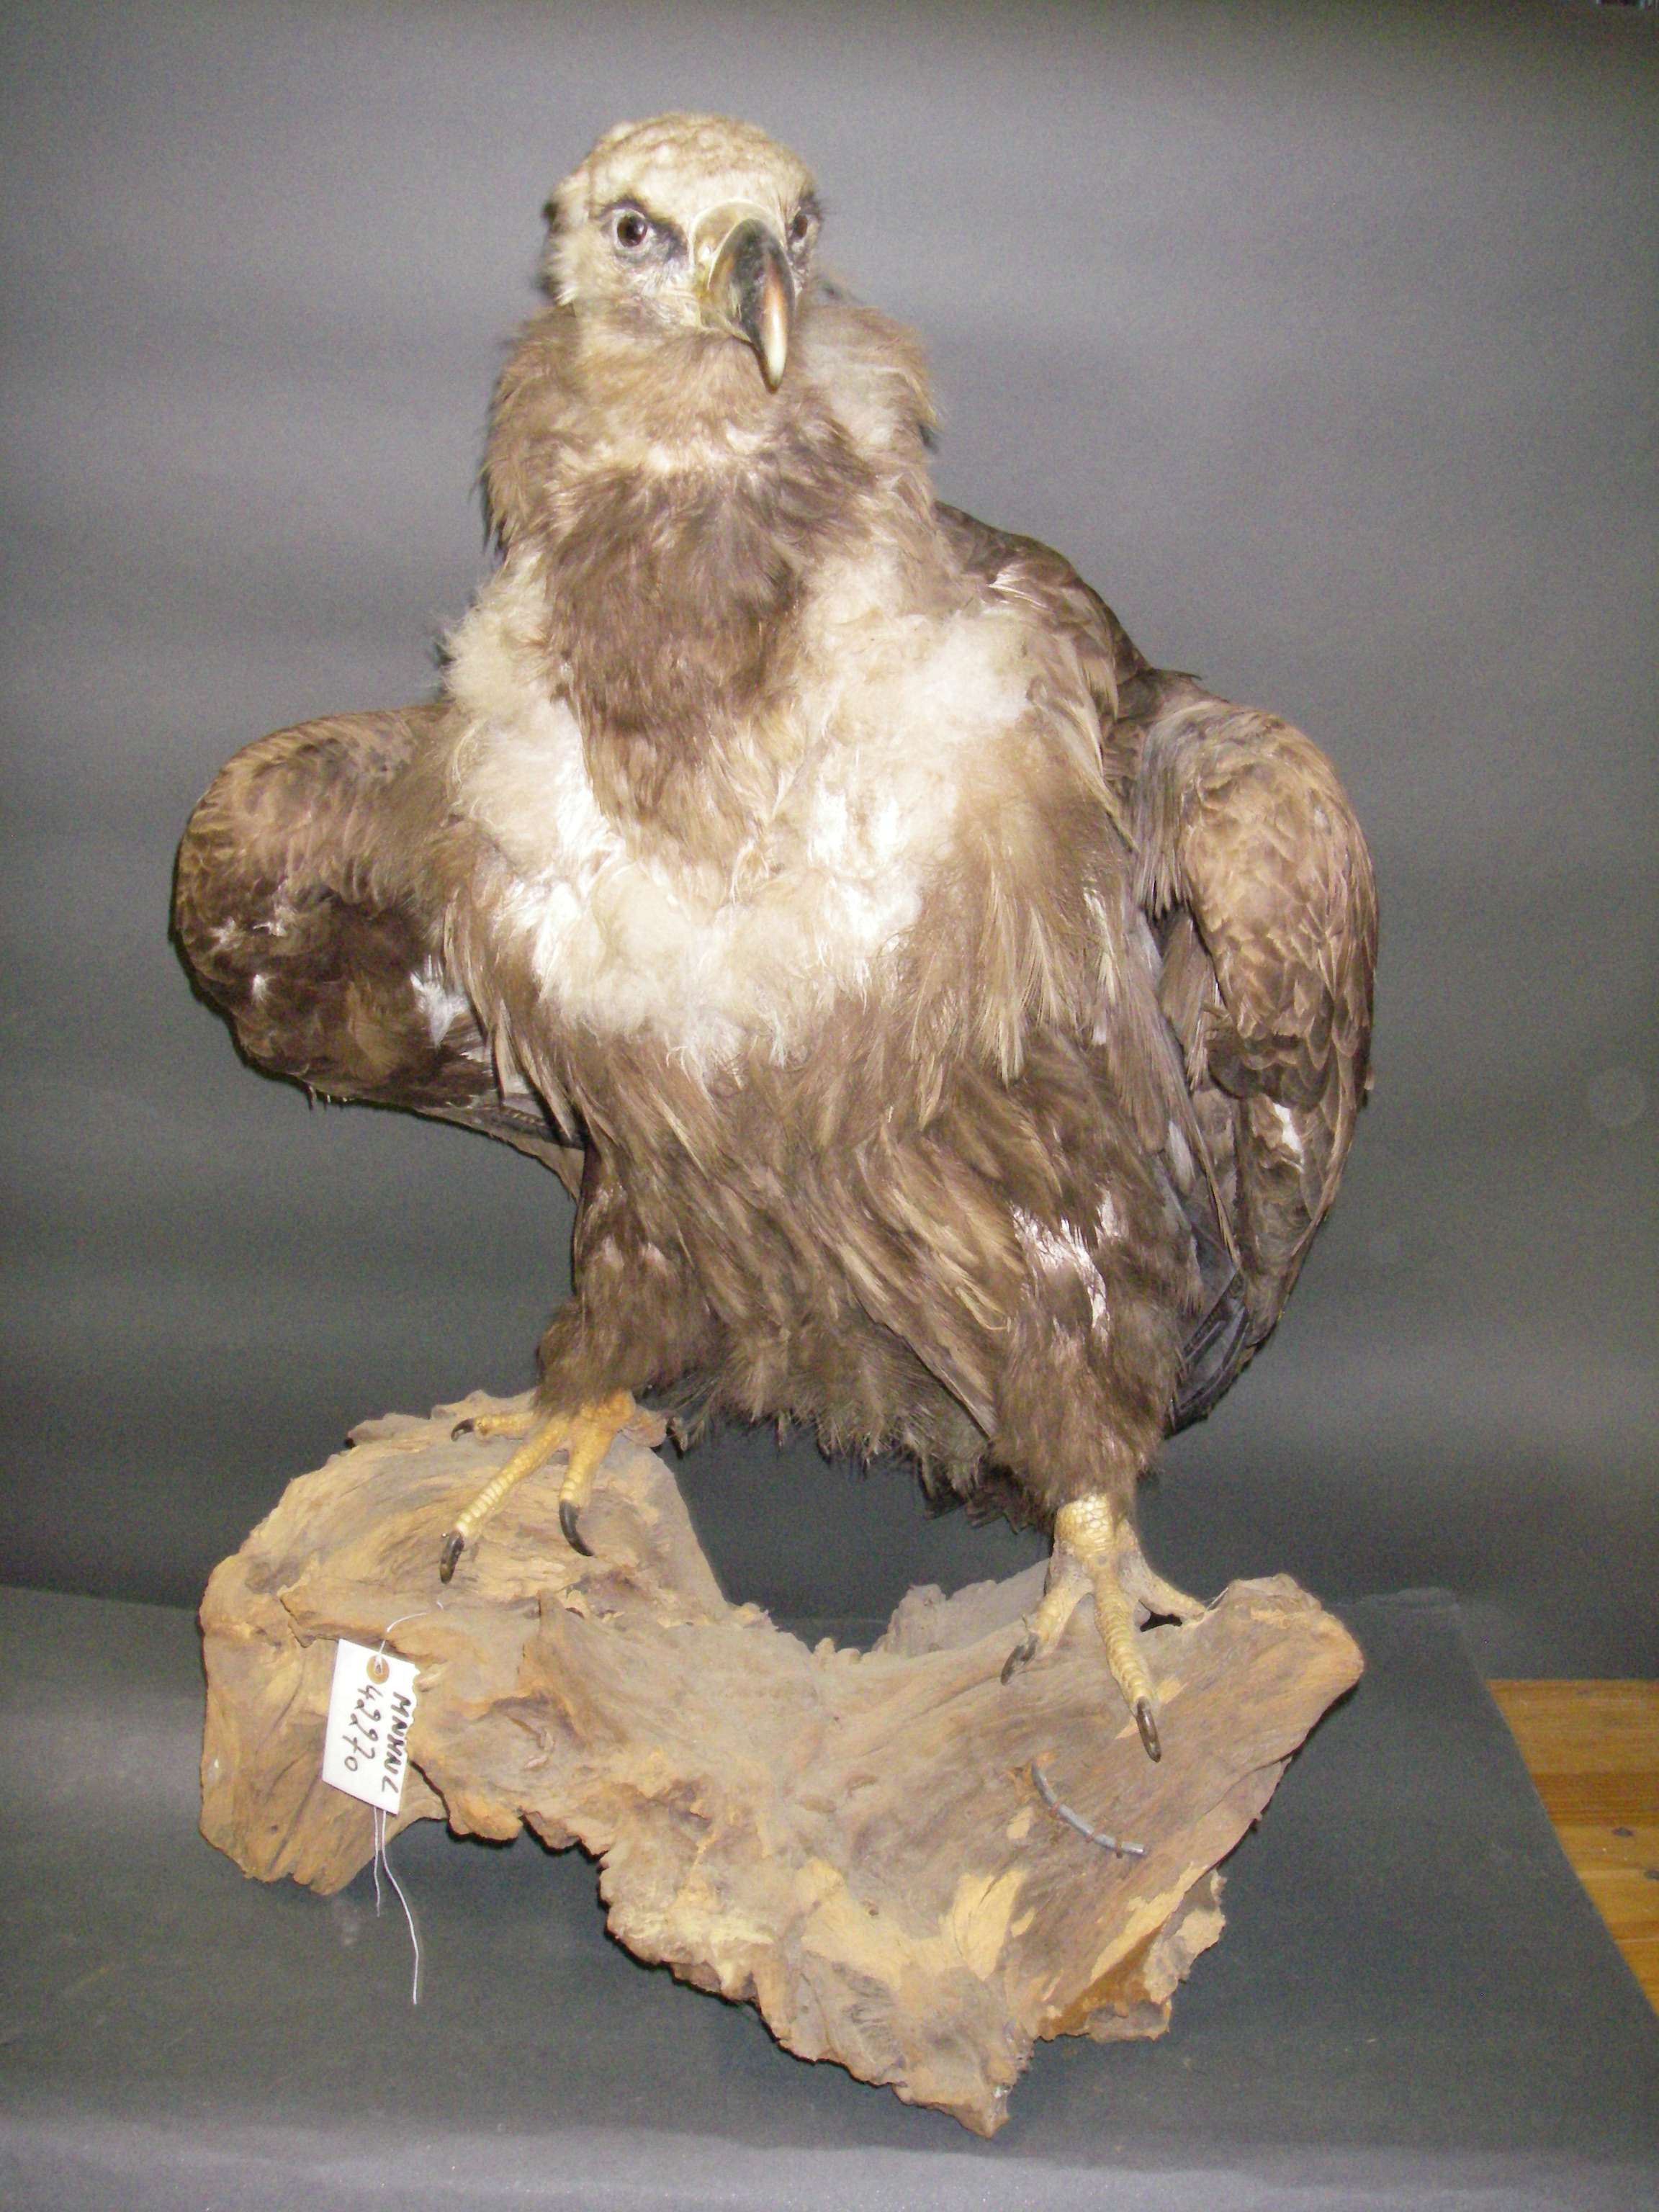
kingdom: Animalia
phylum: Chordata
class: Aves
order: Accipitriformes
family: Accipitridae
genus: Aegypius
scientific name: Aegypius monachus
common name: Cinereous vulture
